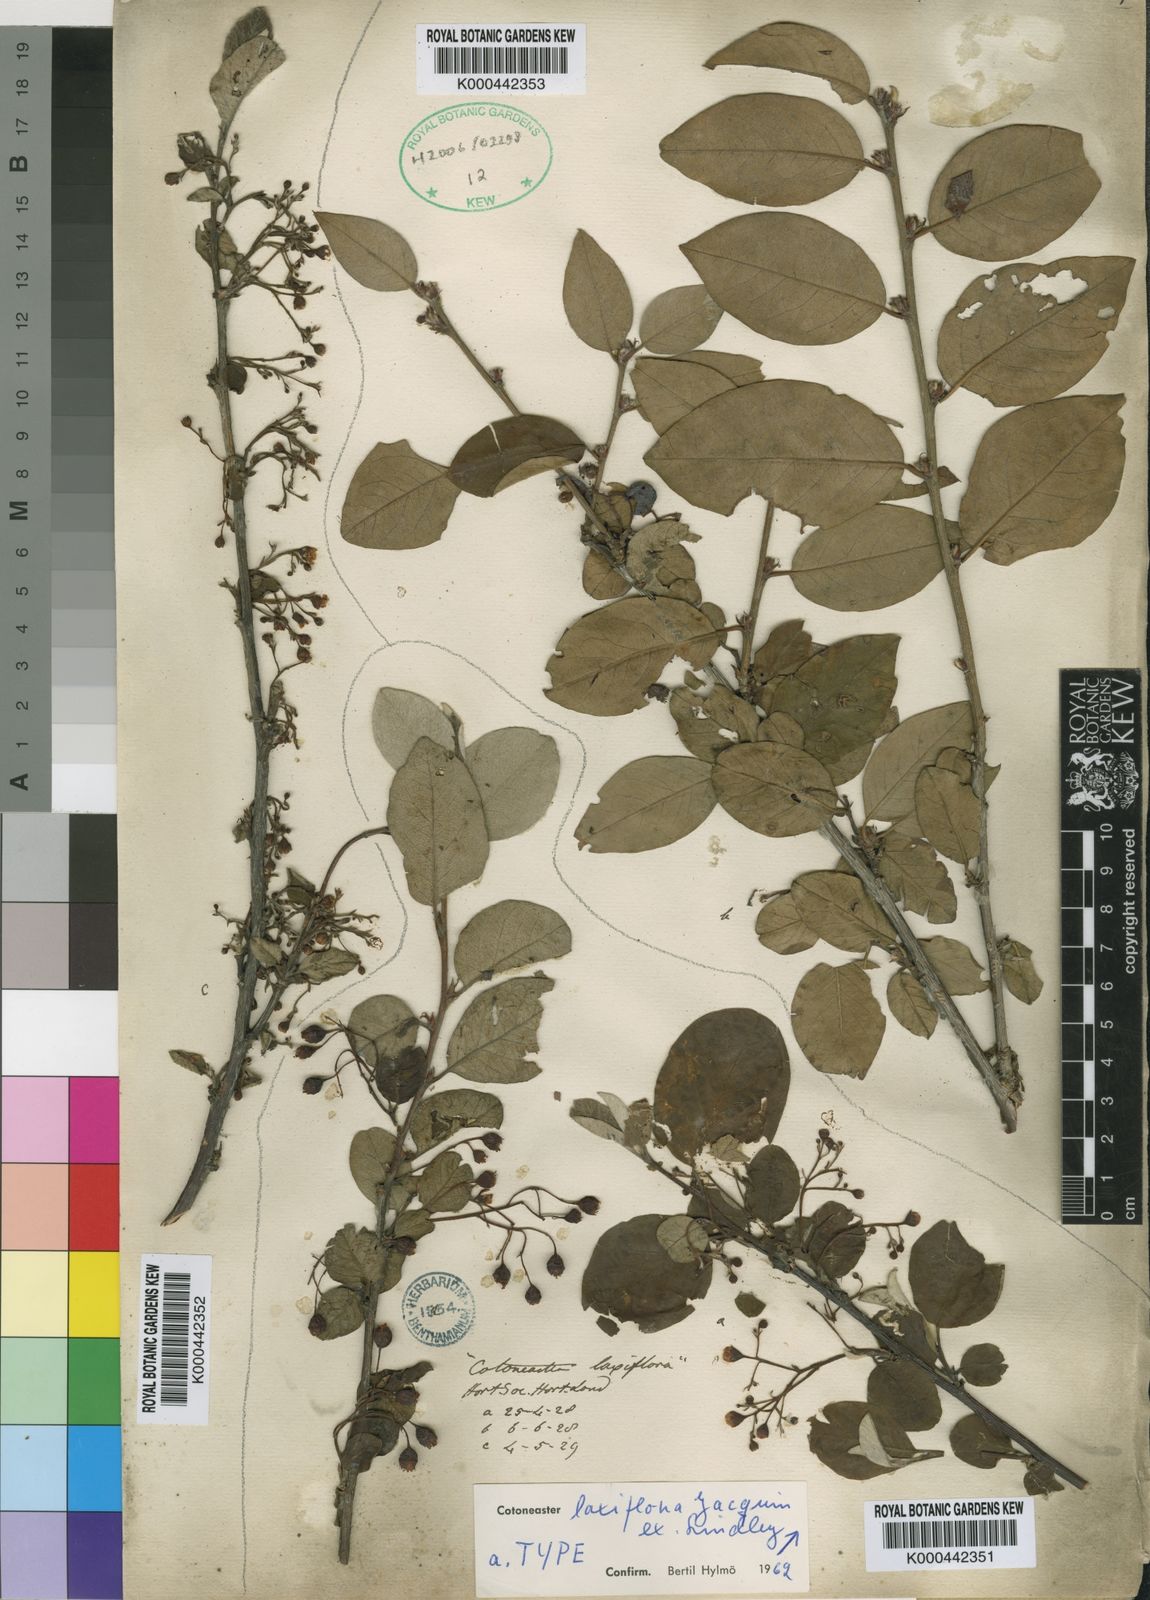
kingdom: Plantae
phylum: Tracheophyta
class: Magnoliopsida
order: Rosales
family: Rosaceae
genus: Cotoneaster
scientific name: Cotoneaster laxiflorus
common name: Black-fruit cotoneaster
